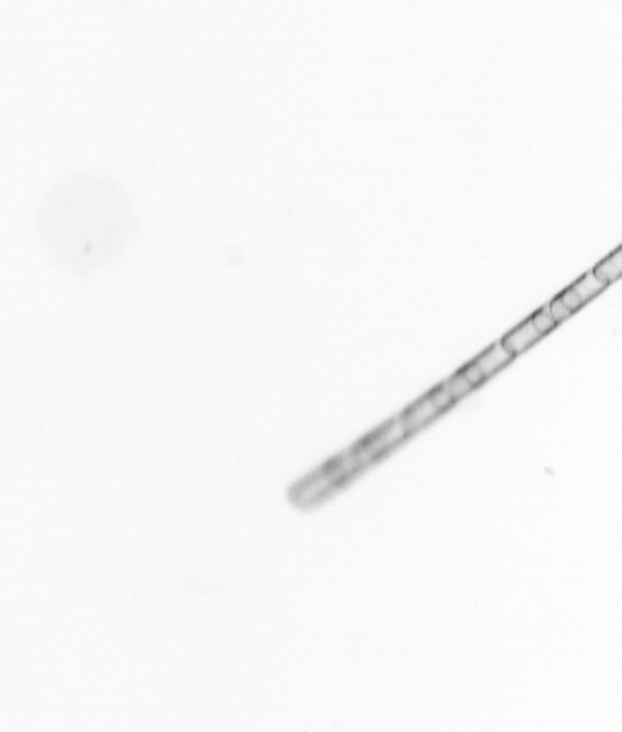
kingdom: Chromista
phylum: Ochrophyta
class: Bacillariophyceae
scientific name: Bacillariophyceae
